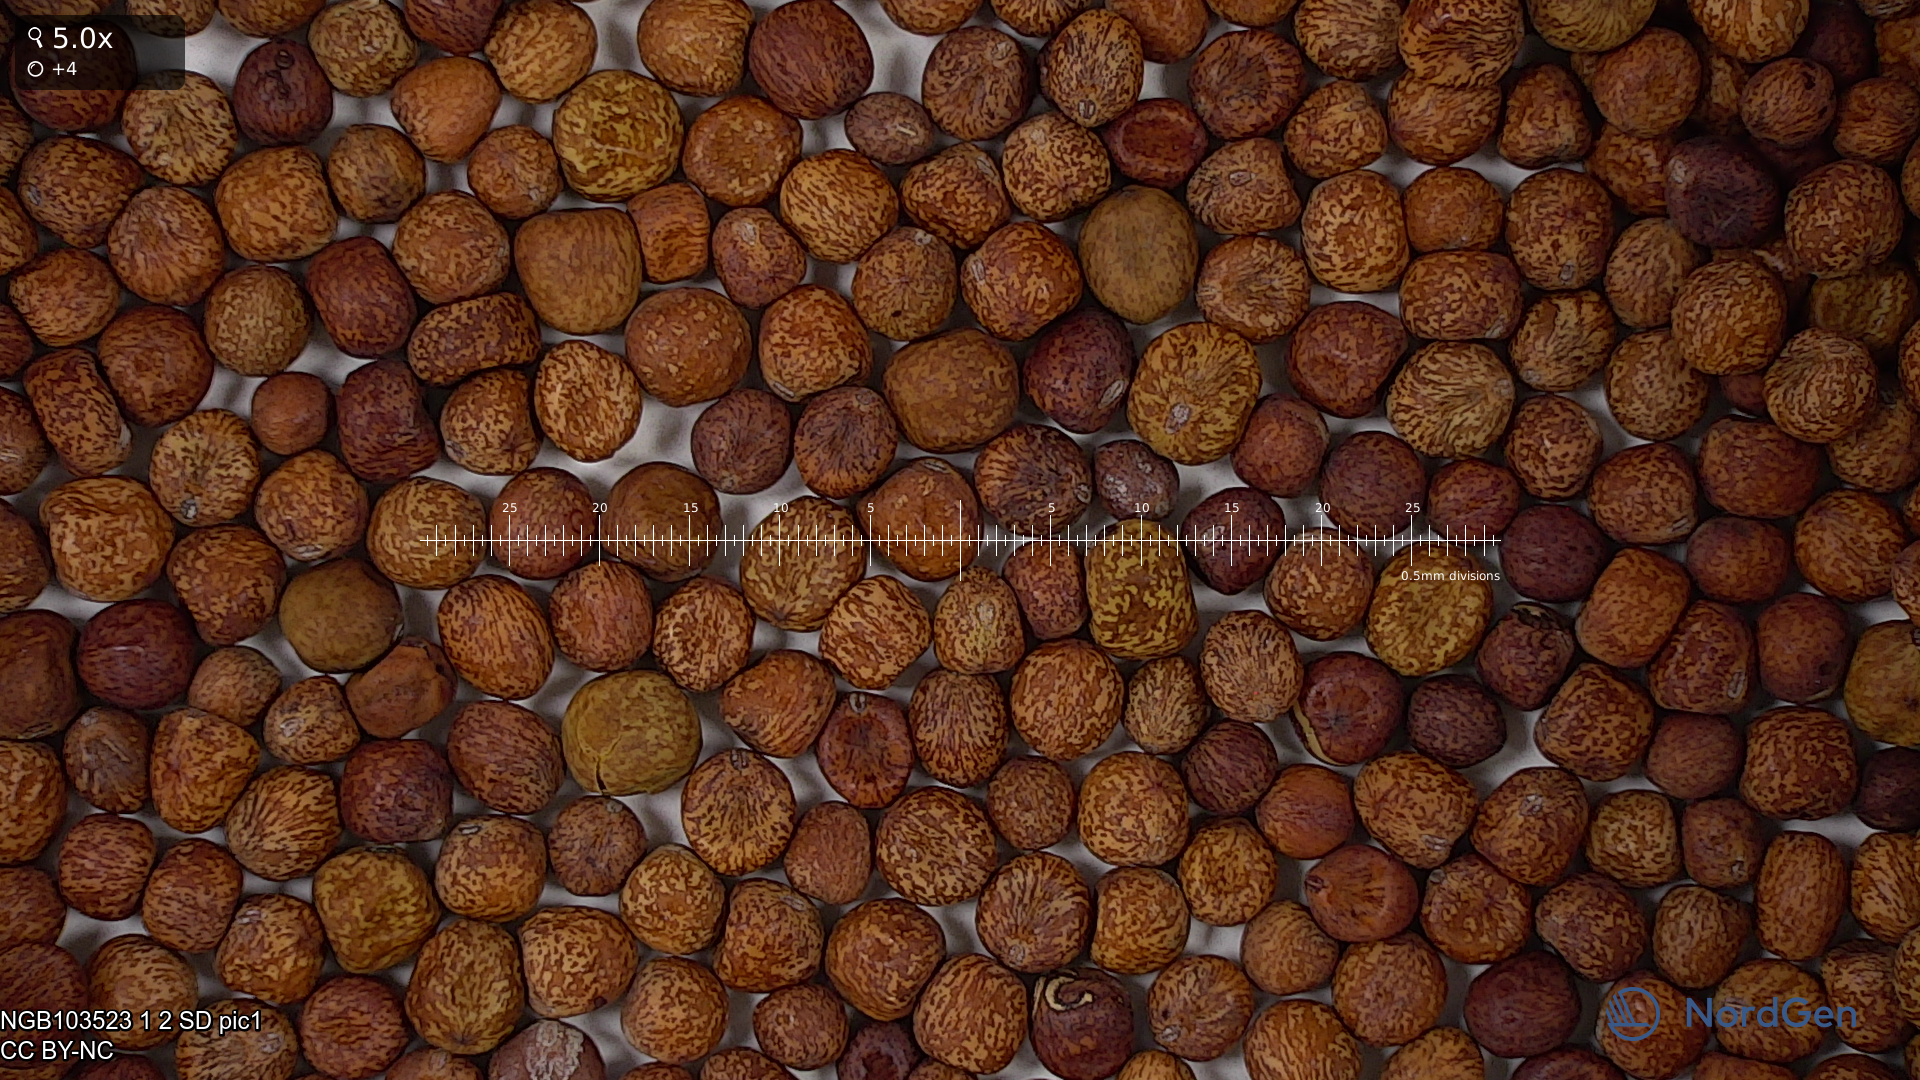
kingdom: Plantae
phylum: Tracheophyta
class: Magnoliopsida
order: Fabales
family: Fabaceae
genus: Lathyrus
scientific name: Lathyrus oleraceus
